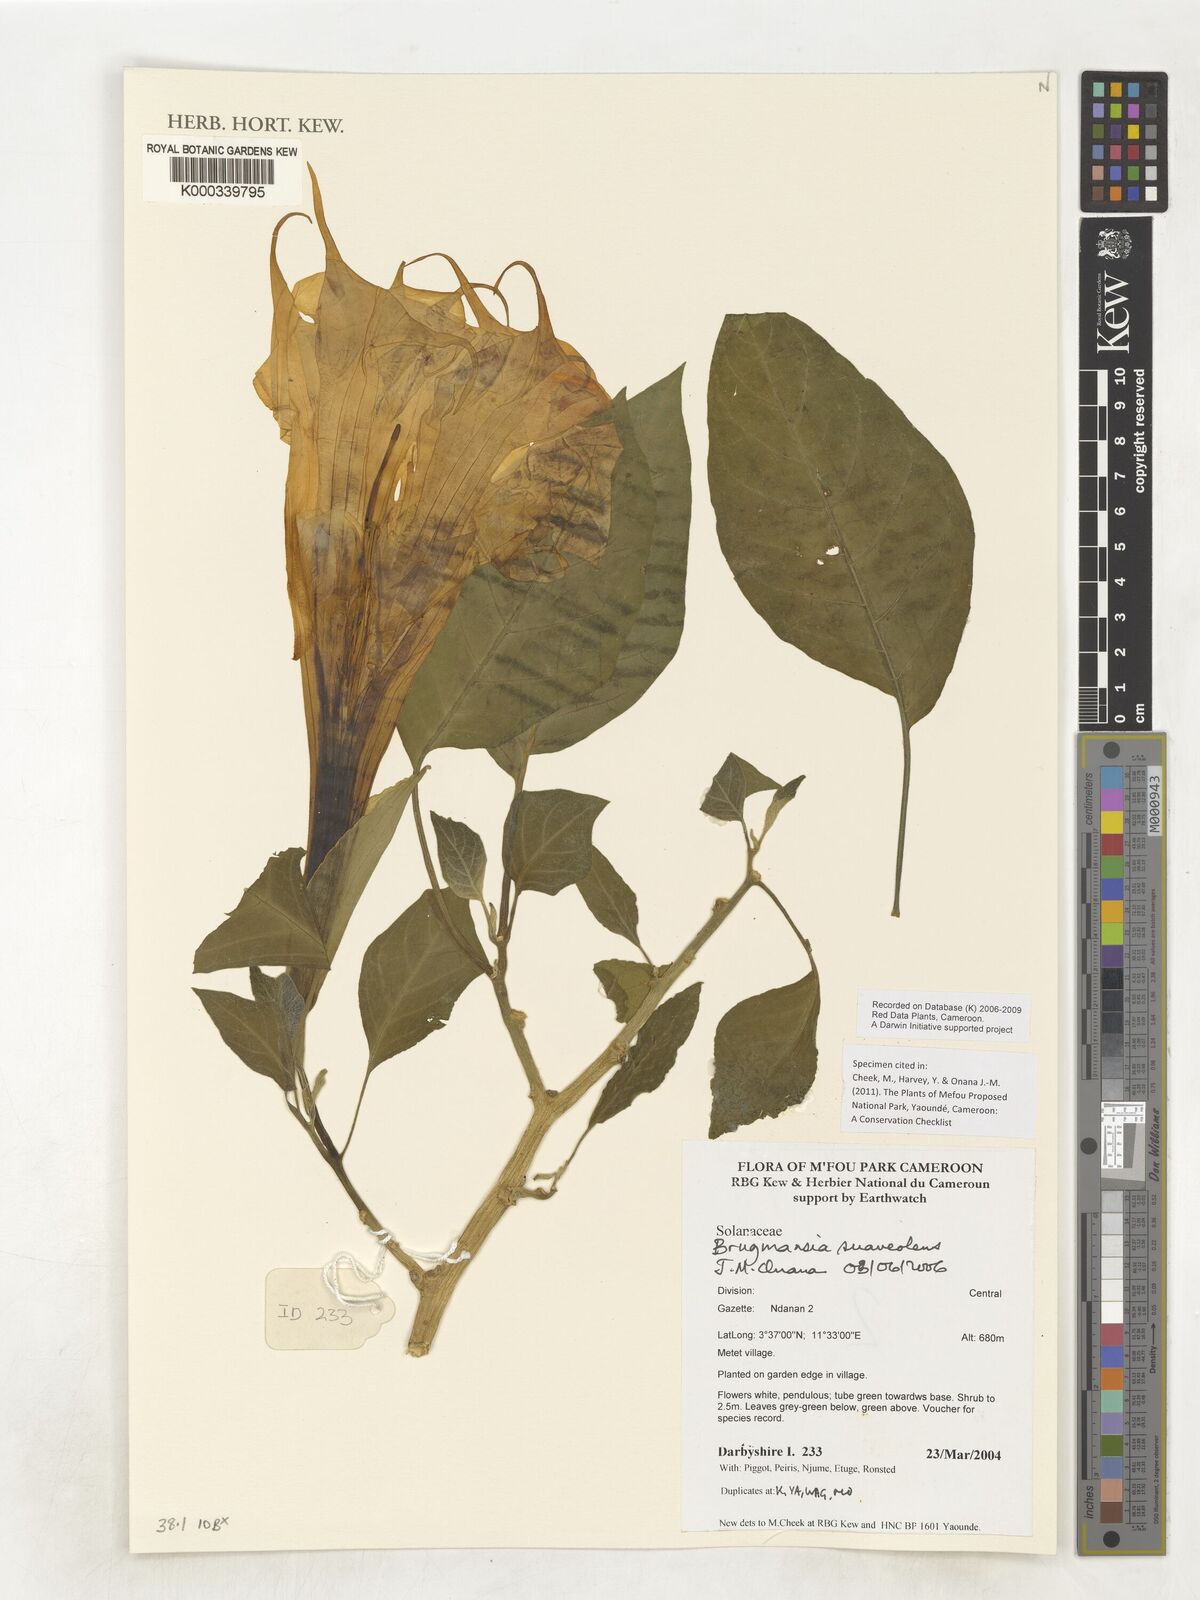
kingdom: Plantae
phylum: Tracheophyta
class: Magnoliopsida
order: Solanales
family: Solanaceae
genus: Brugmansia
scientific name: Brugmansia
